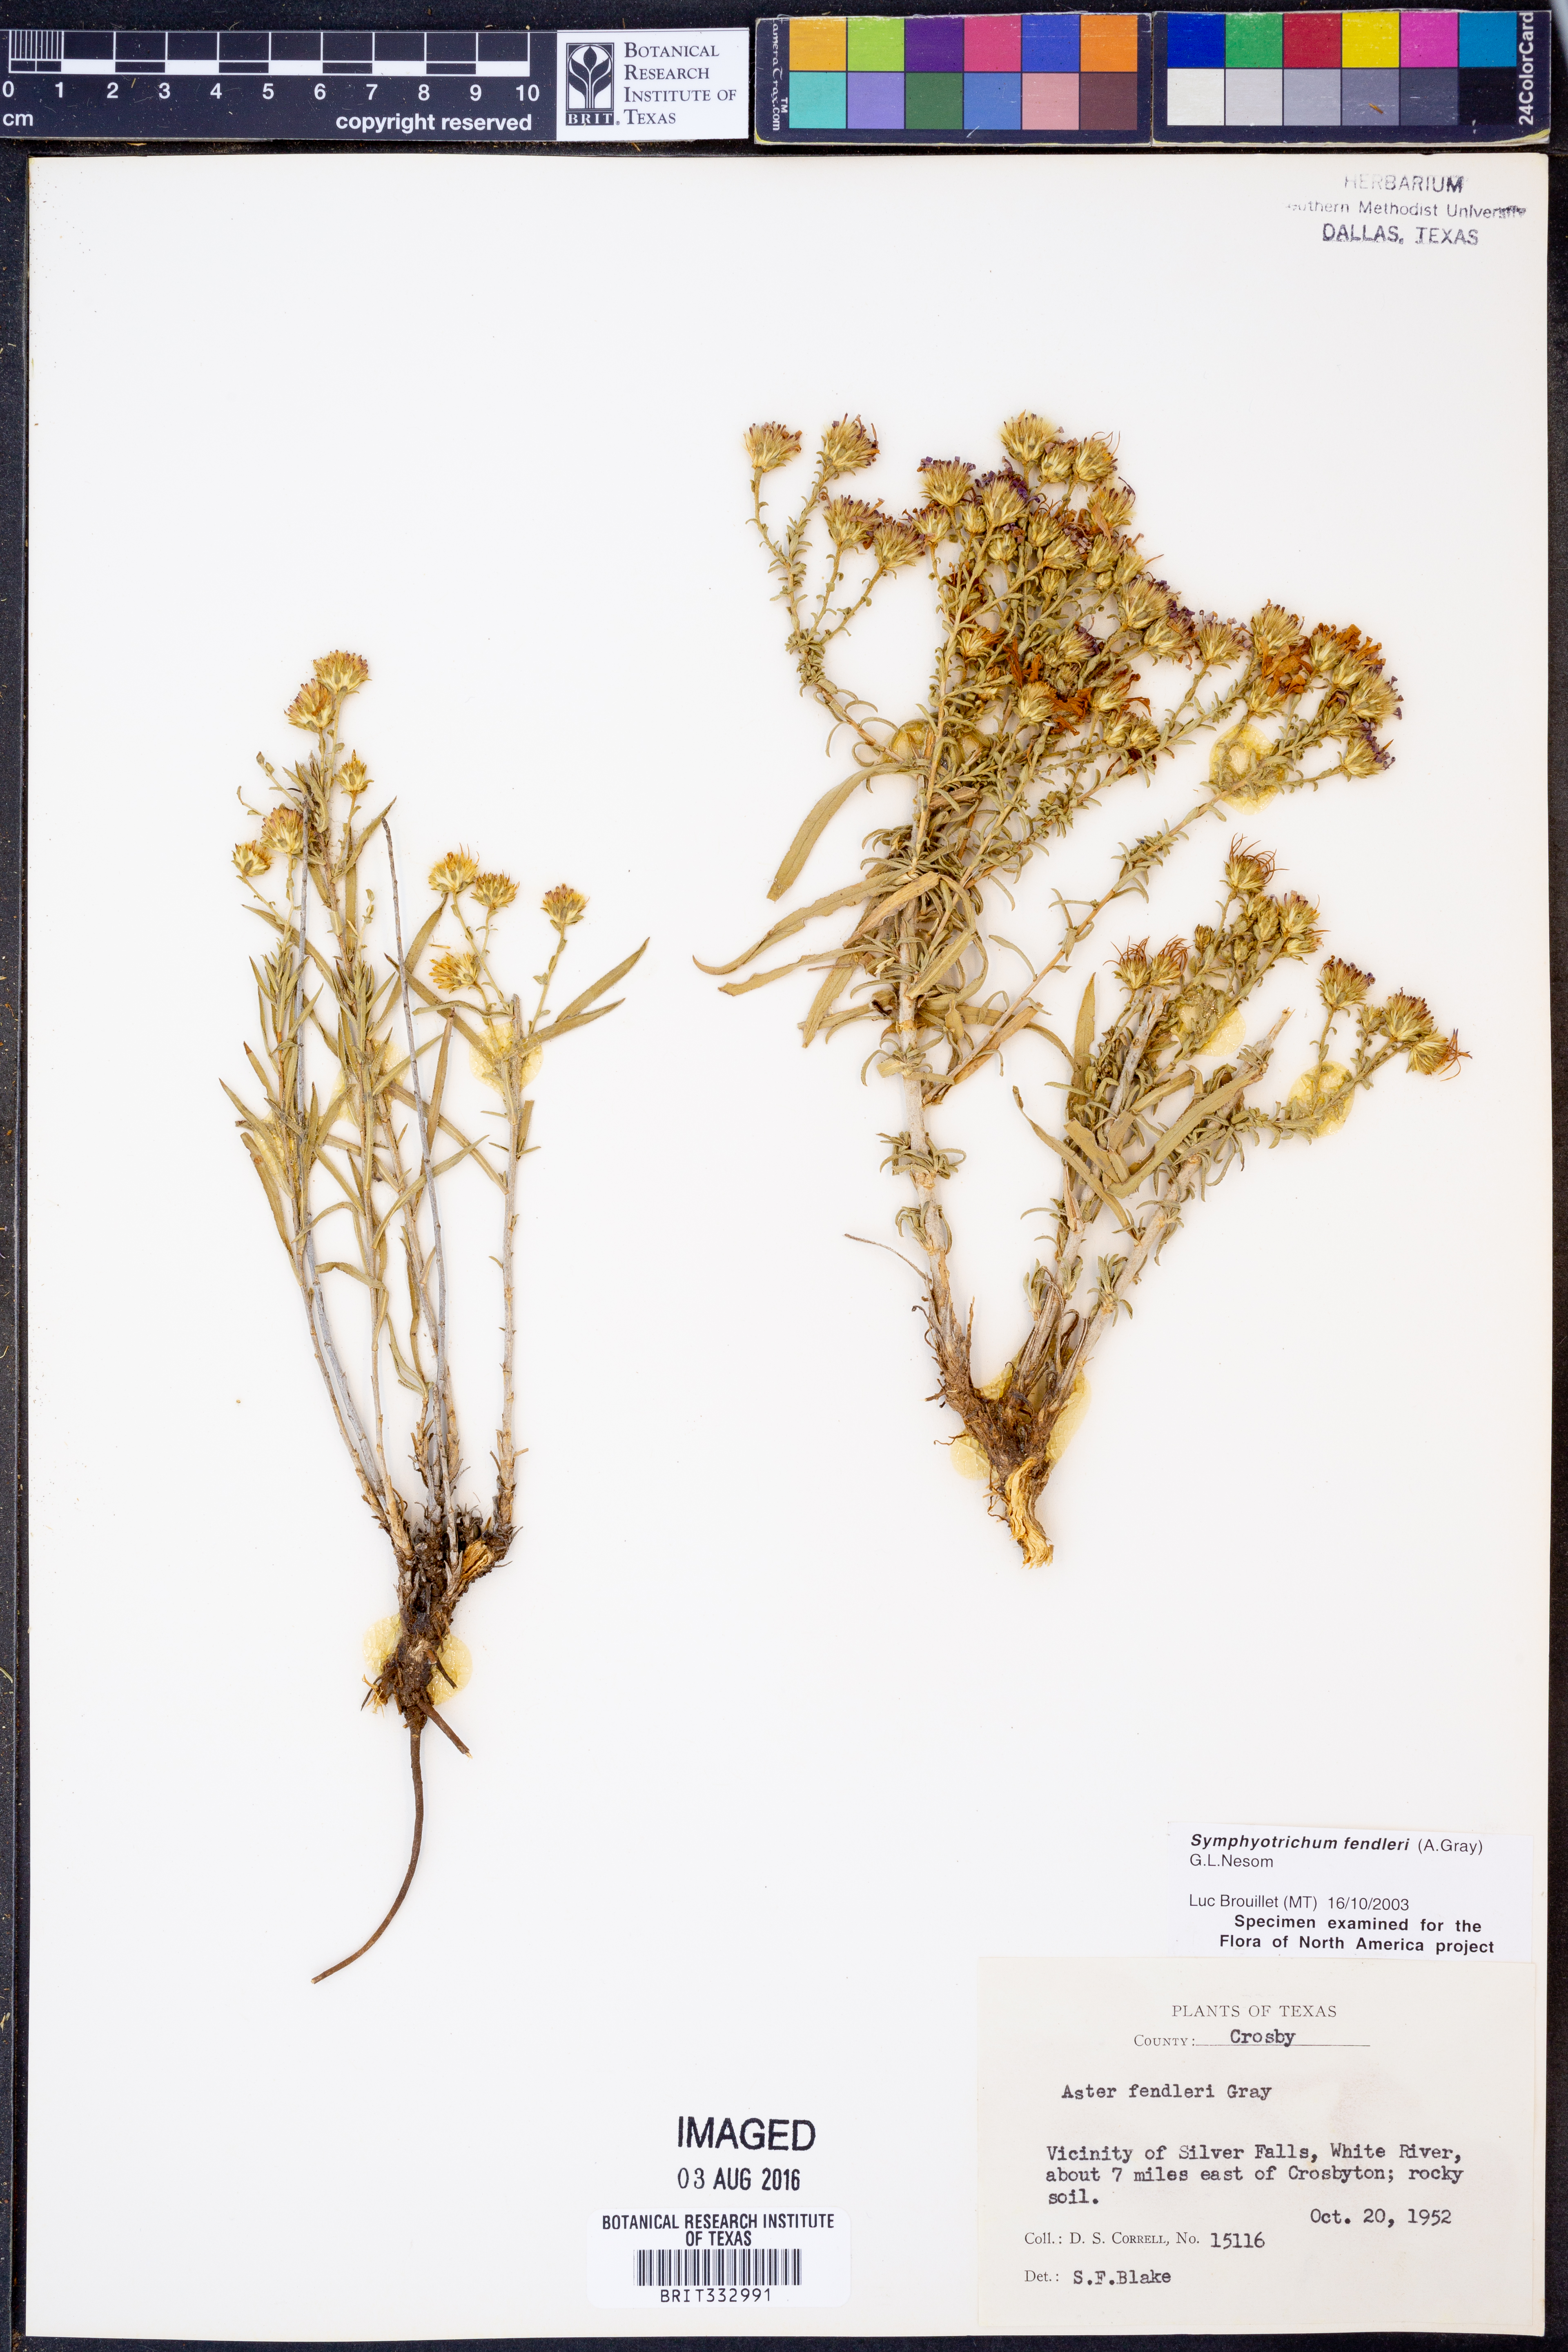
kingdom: Plantae
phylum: Tracheophyta
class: Magnoliopsida
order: Asterales
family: Asteraceae
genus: Symphyotrichum
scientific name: Symphyotrichum fendleri
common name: Fendler's aster
